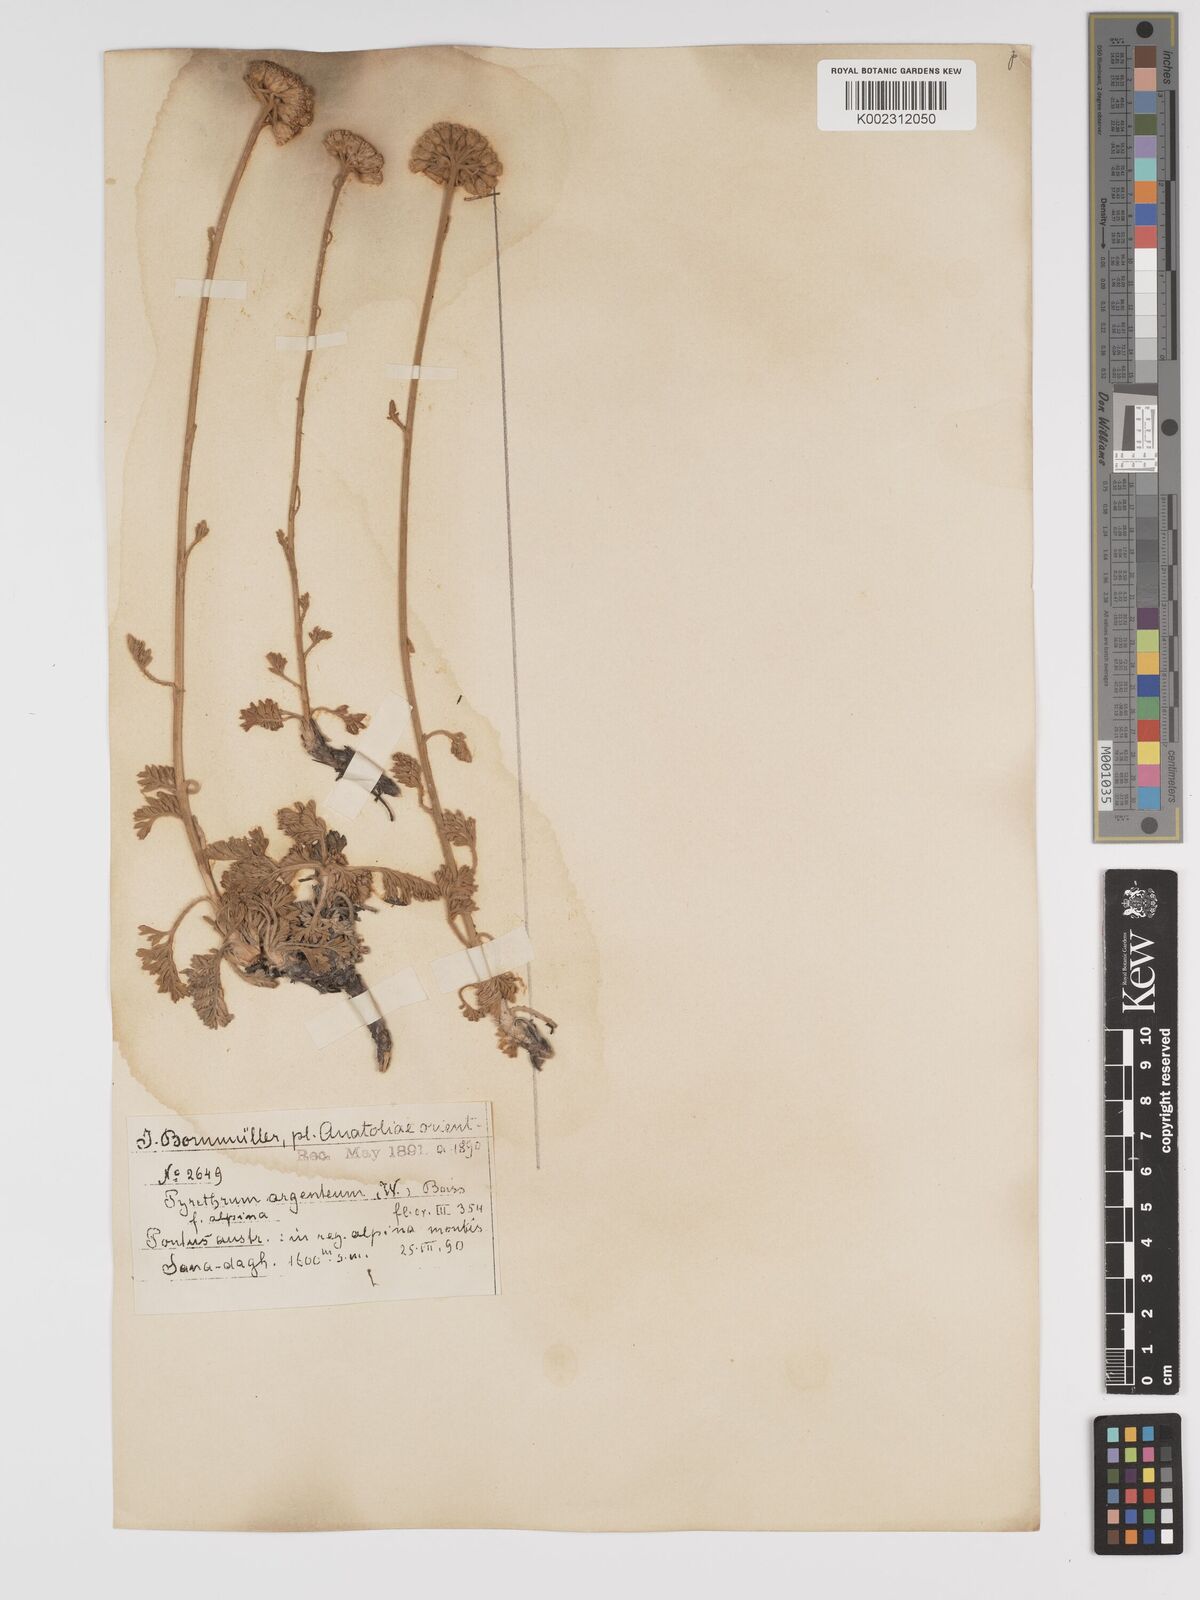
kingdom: Plantae
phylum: Tracheophyta
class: Magnoliopsida
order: Asterales
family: Asteraceae
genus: Tanacetum
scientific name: Tanacetum argenteum
